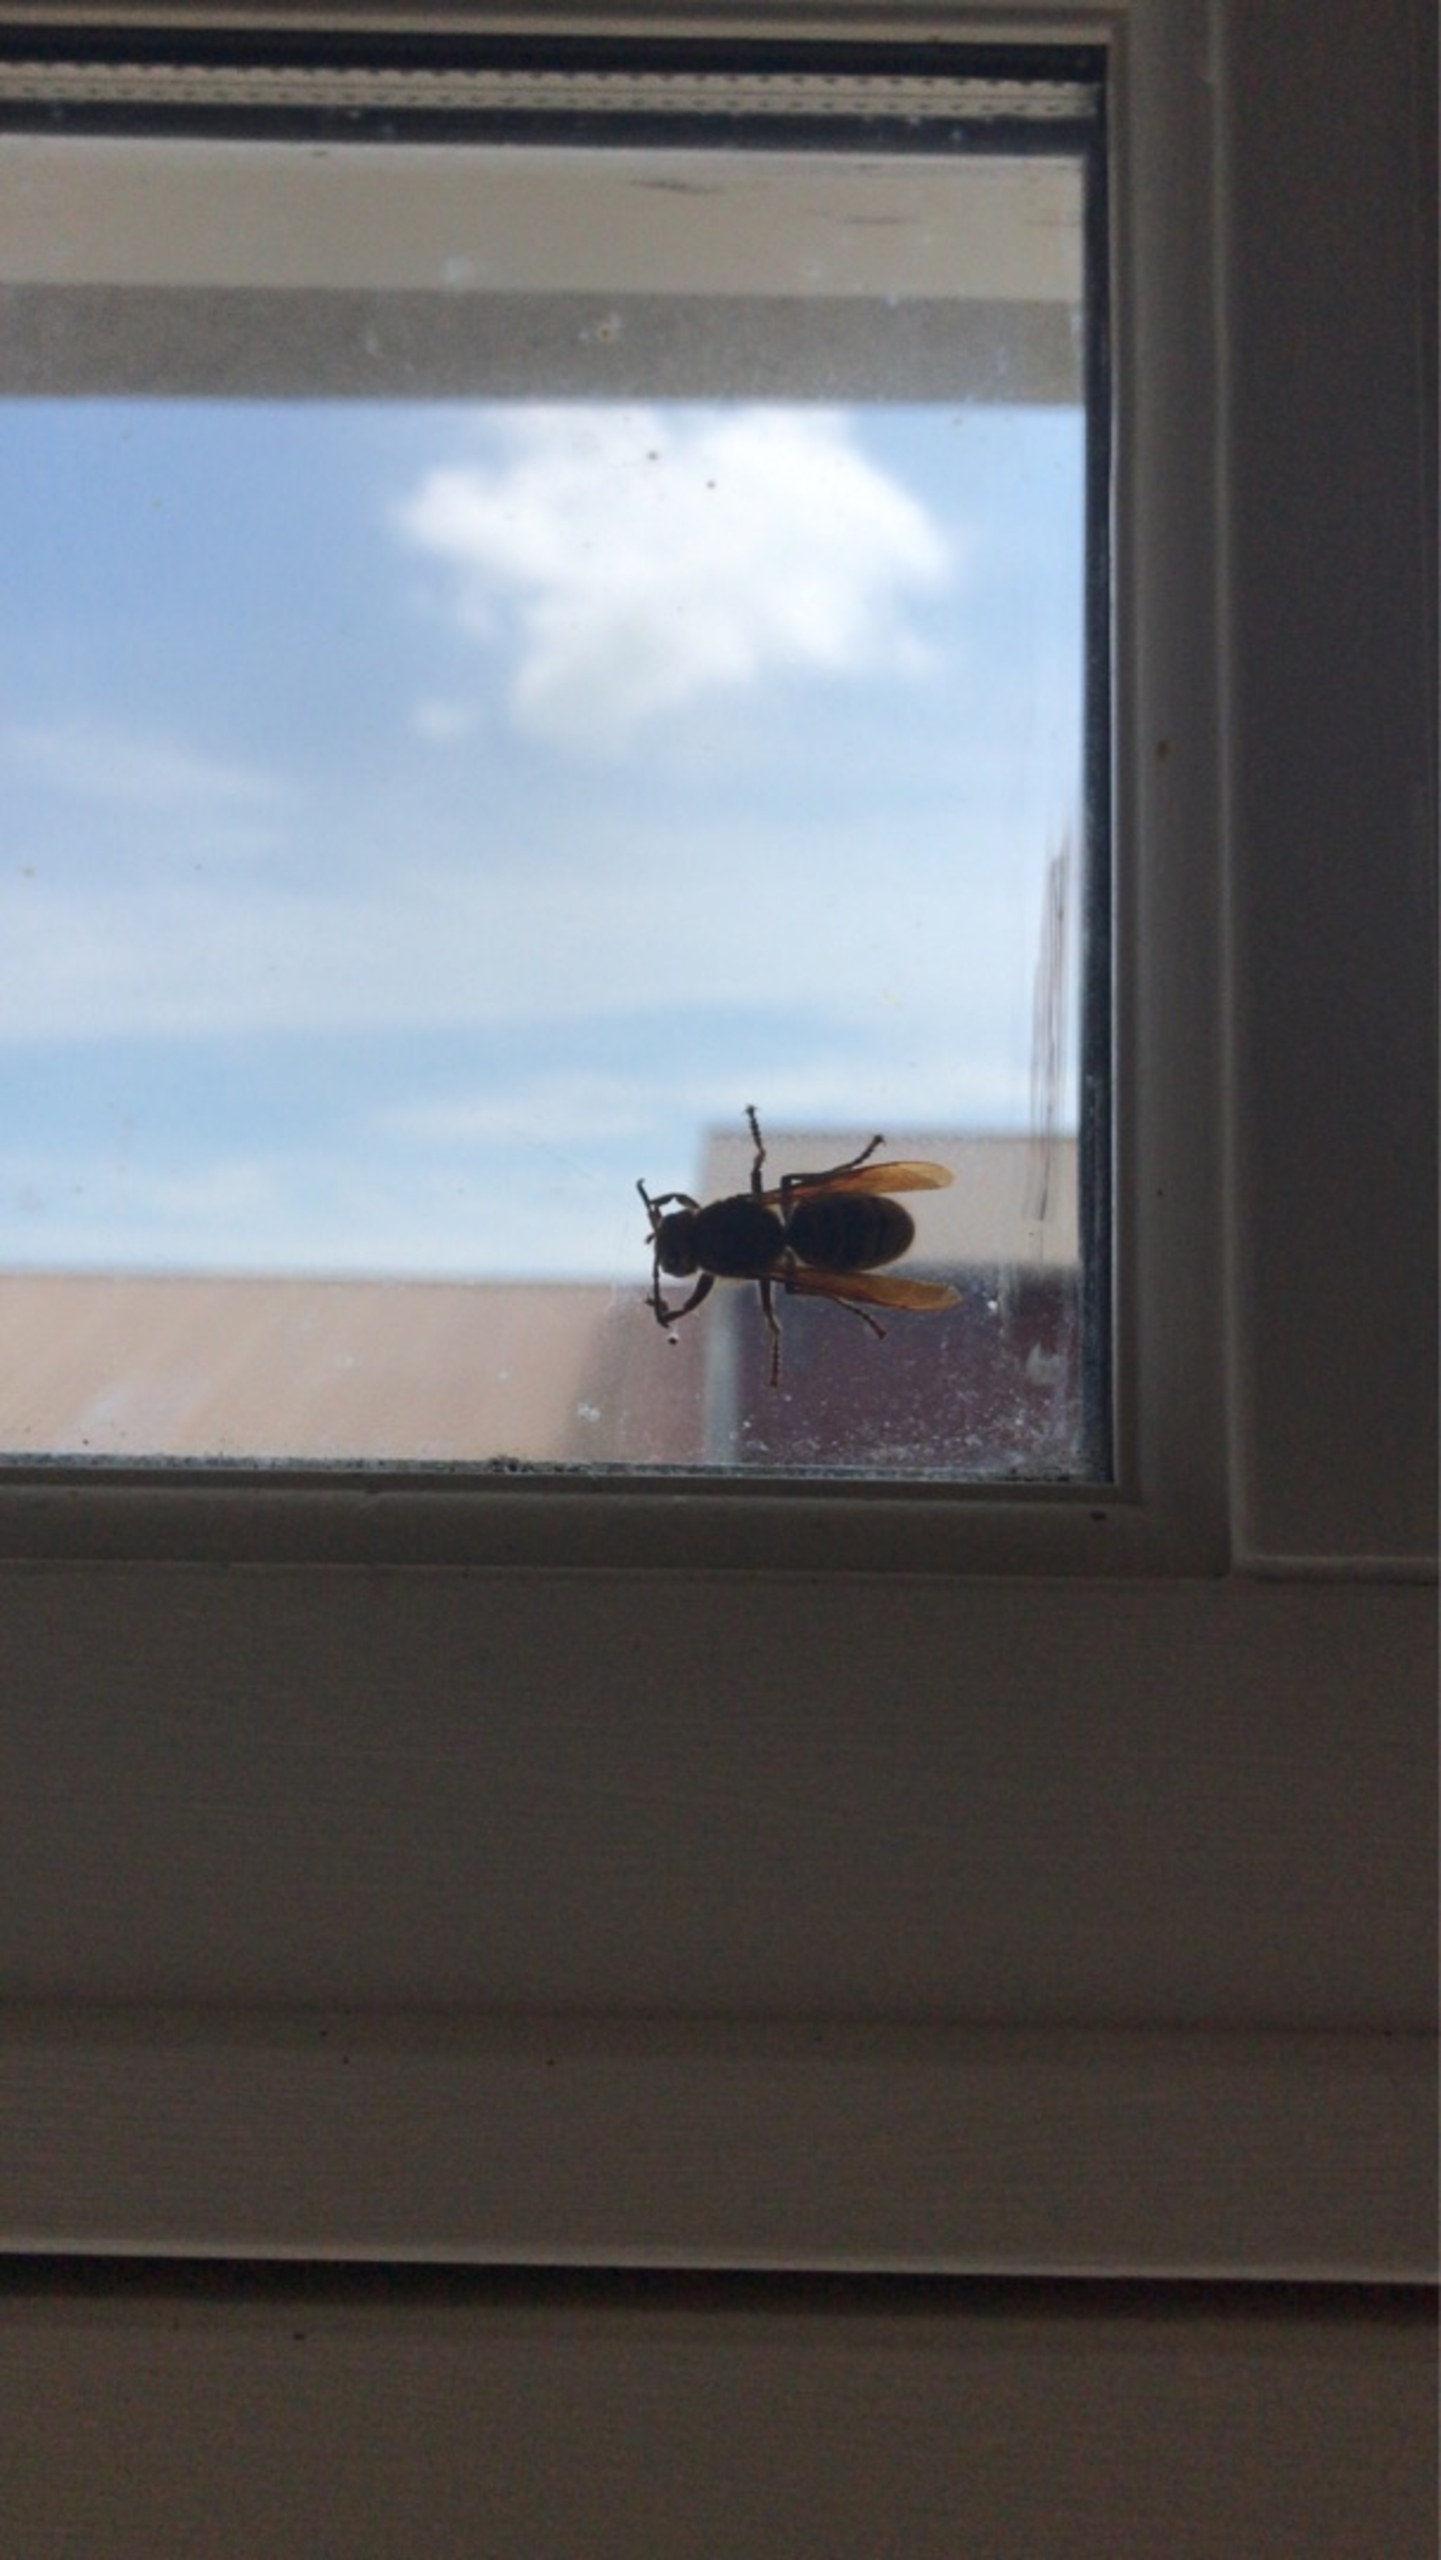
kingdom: Animalia
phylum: Arthropoda
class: Insecta
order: Hymenoptera
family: Vespidae
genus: Vespa
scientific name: Vespa crabro
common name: Stor gedehams
